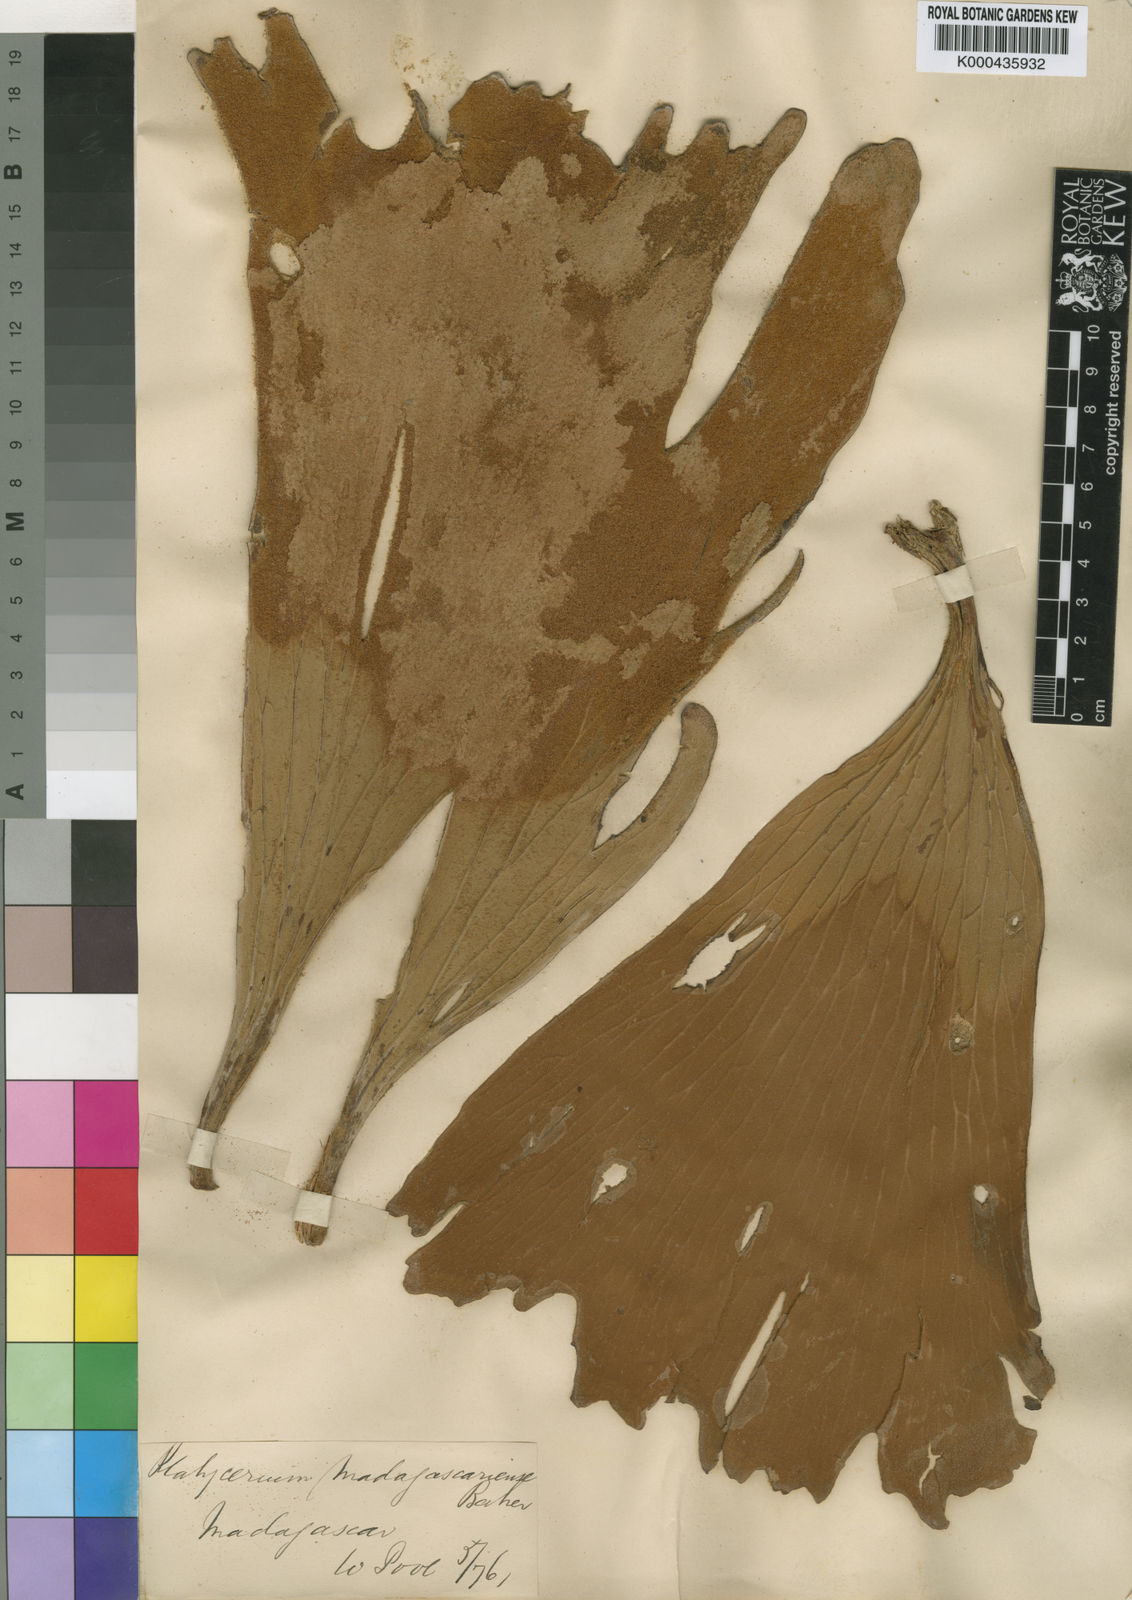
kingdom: Plantae
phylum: Tracheophyta
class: Polypodiopsida
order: Polypodiales
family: Polypodiaceae
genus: Platycerium
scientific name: Platycerium madagascariense
